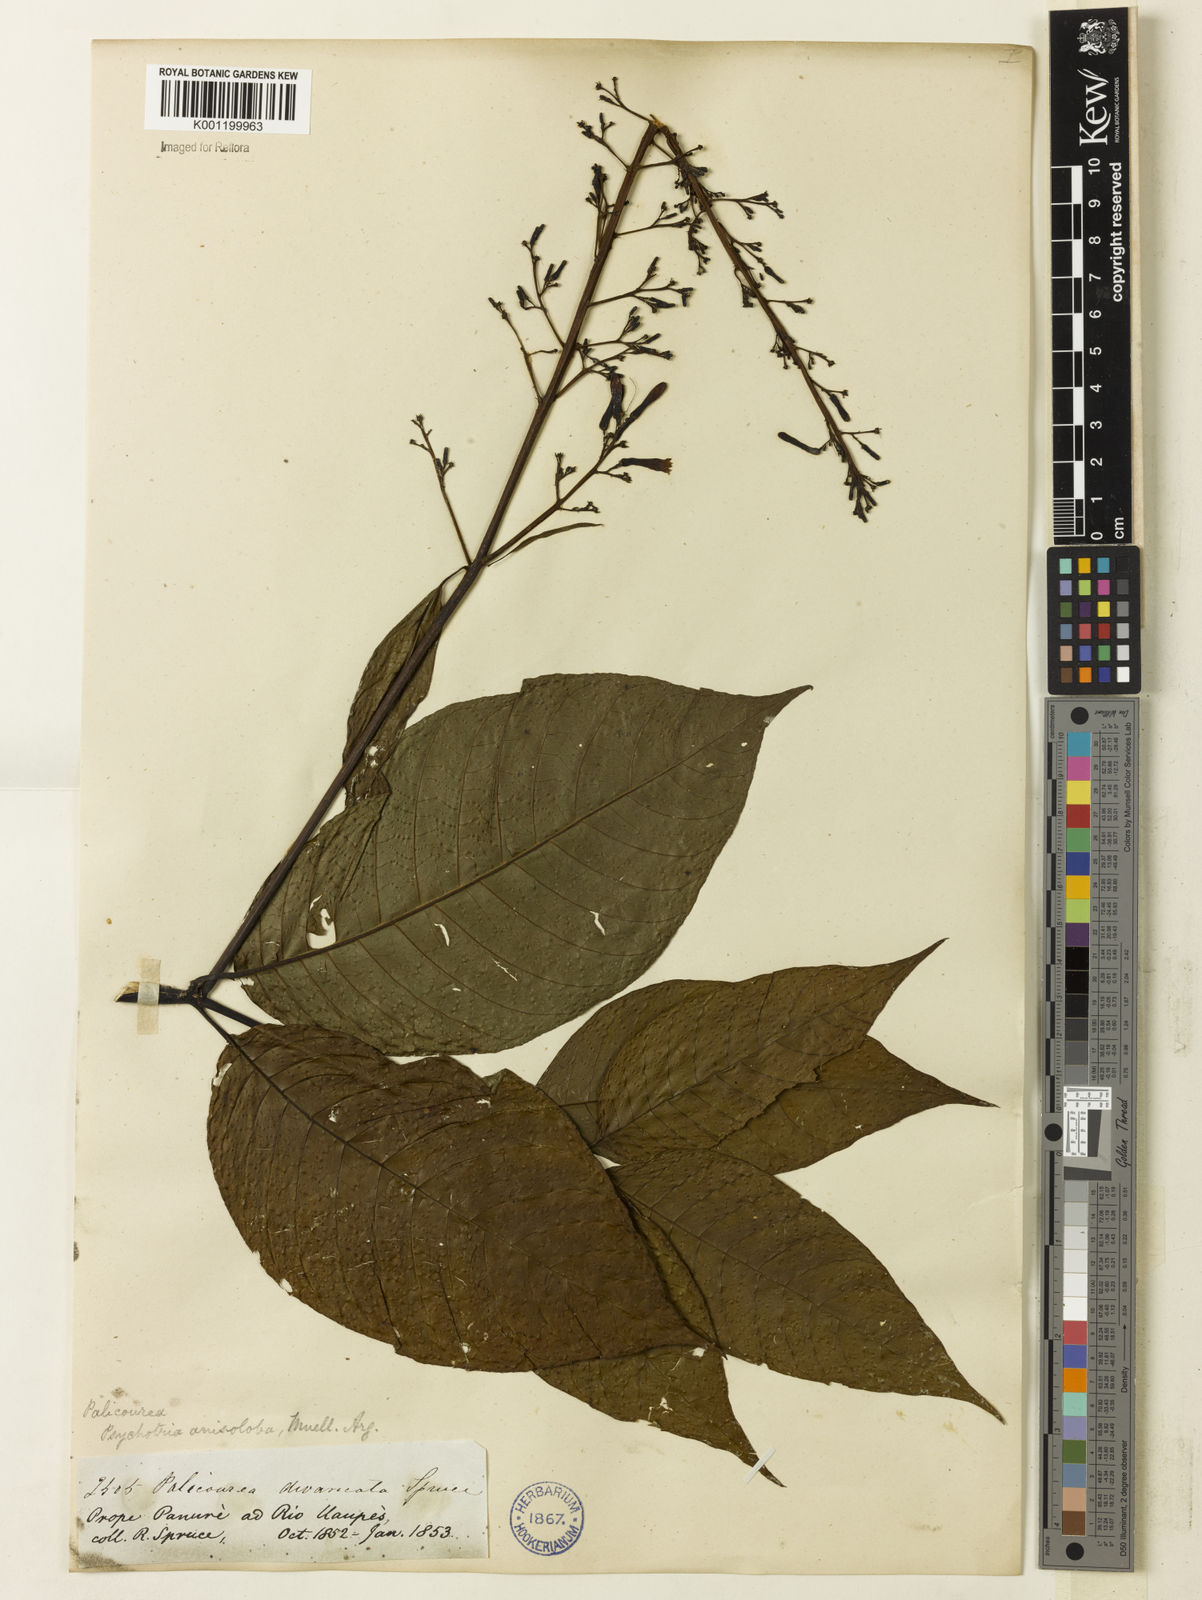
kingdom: Plantae
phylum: Tracheophyta
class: Magnoliopsida
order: Gentianales
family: Rubiaceae
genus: Palicourea
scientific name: Palicourea
